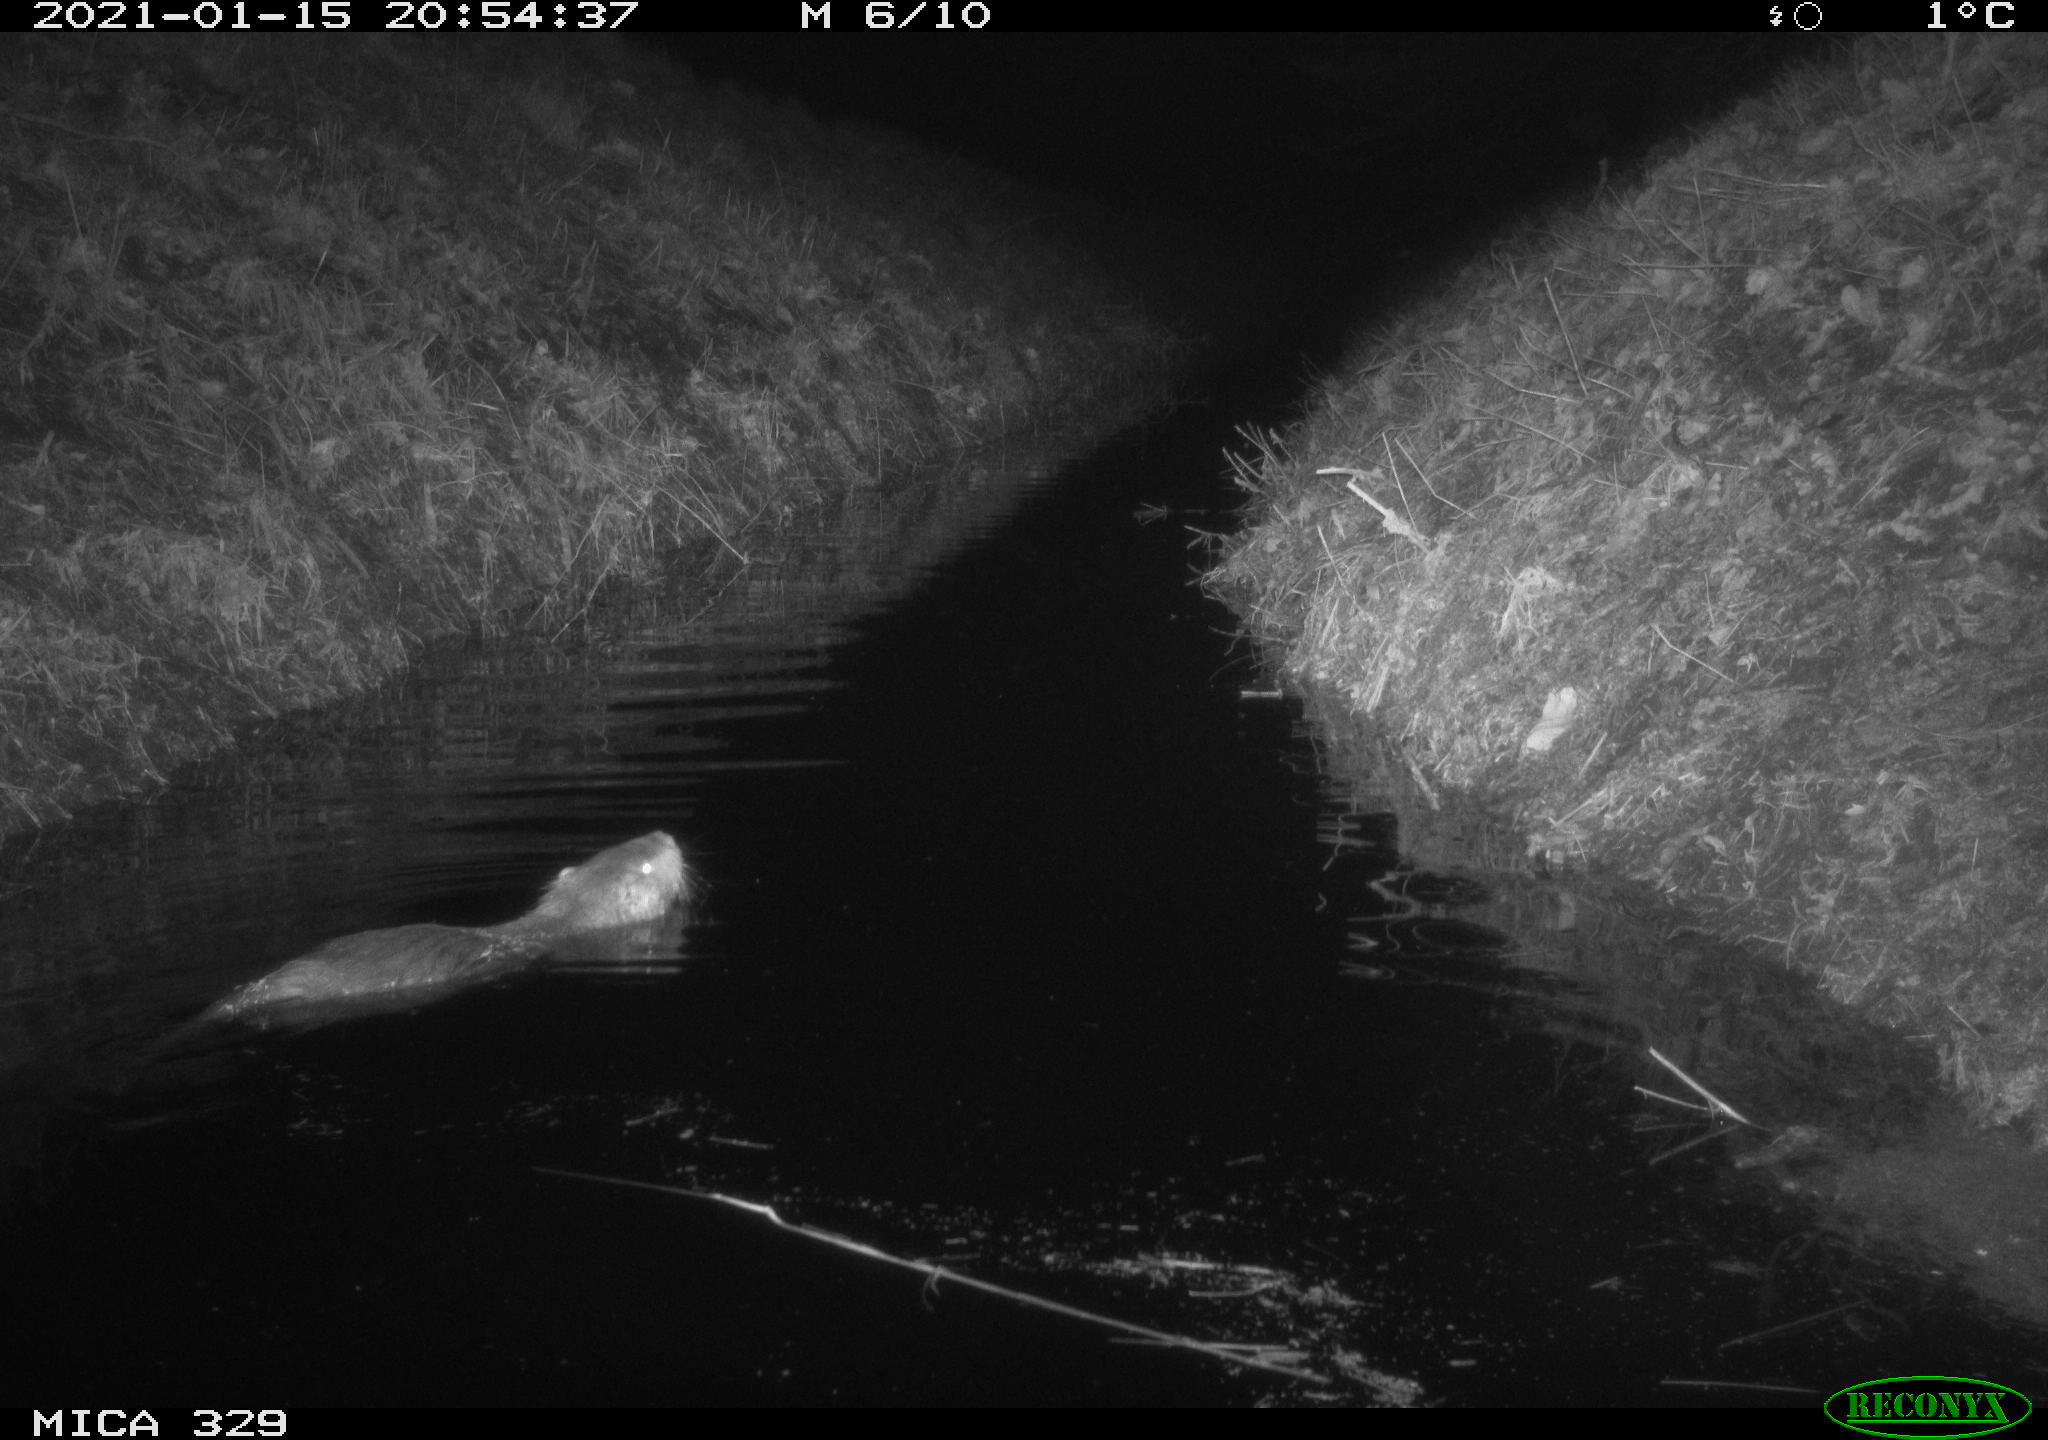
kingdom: Animalia
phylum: Chordata
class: Mammalia
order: Rodentia
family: Myocastoridae
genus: Myocastor
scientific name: Myocastor coypus
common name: Coypu
